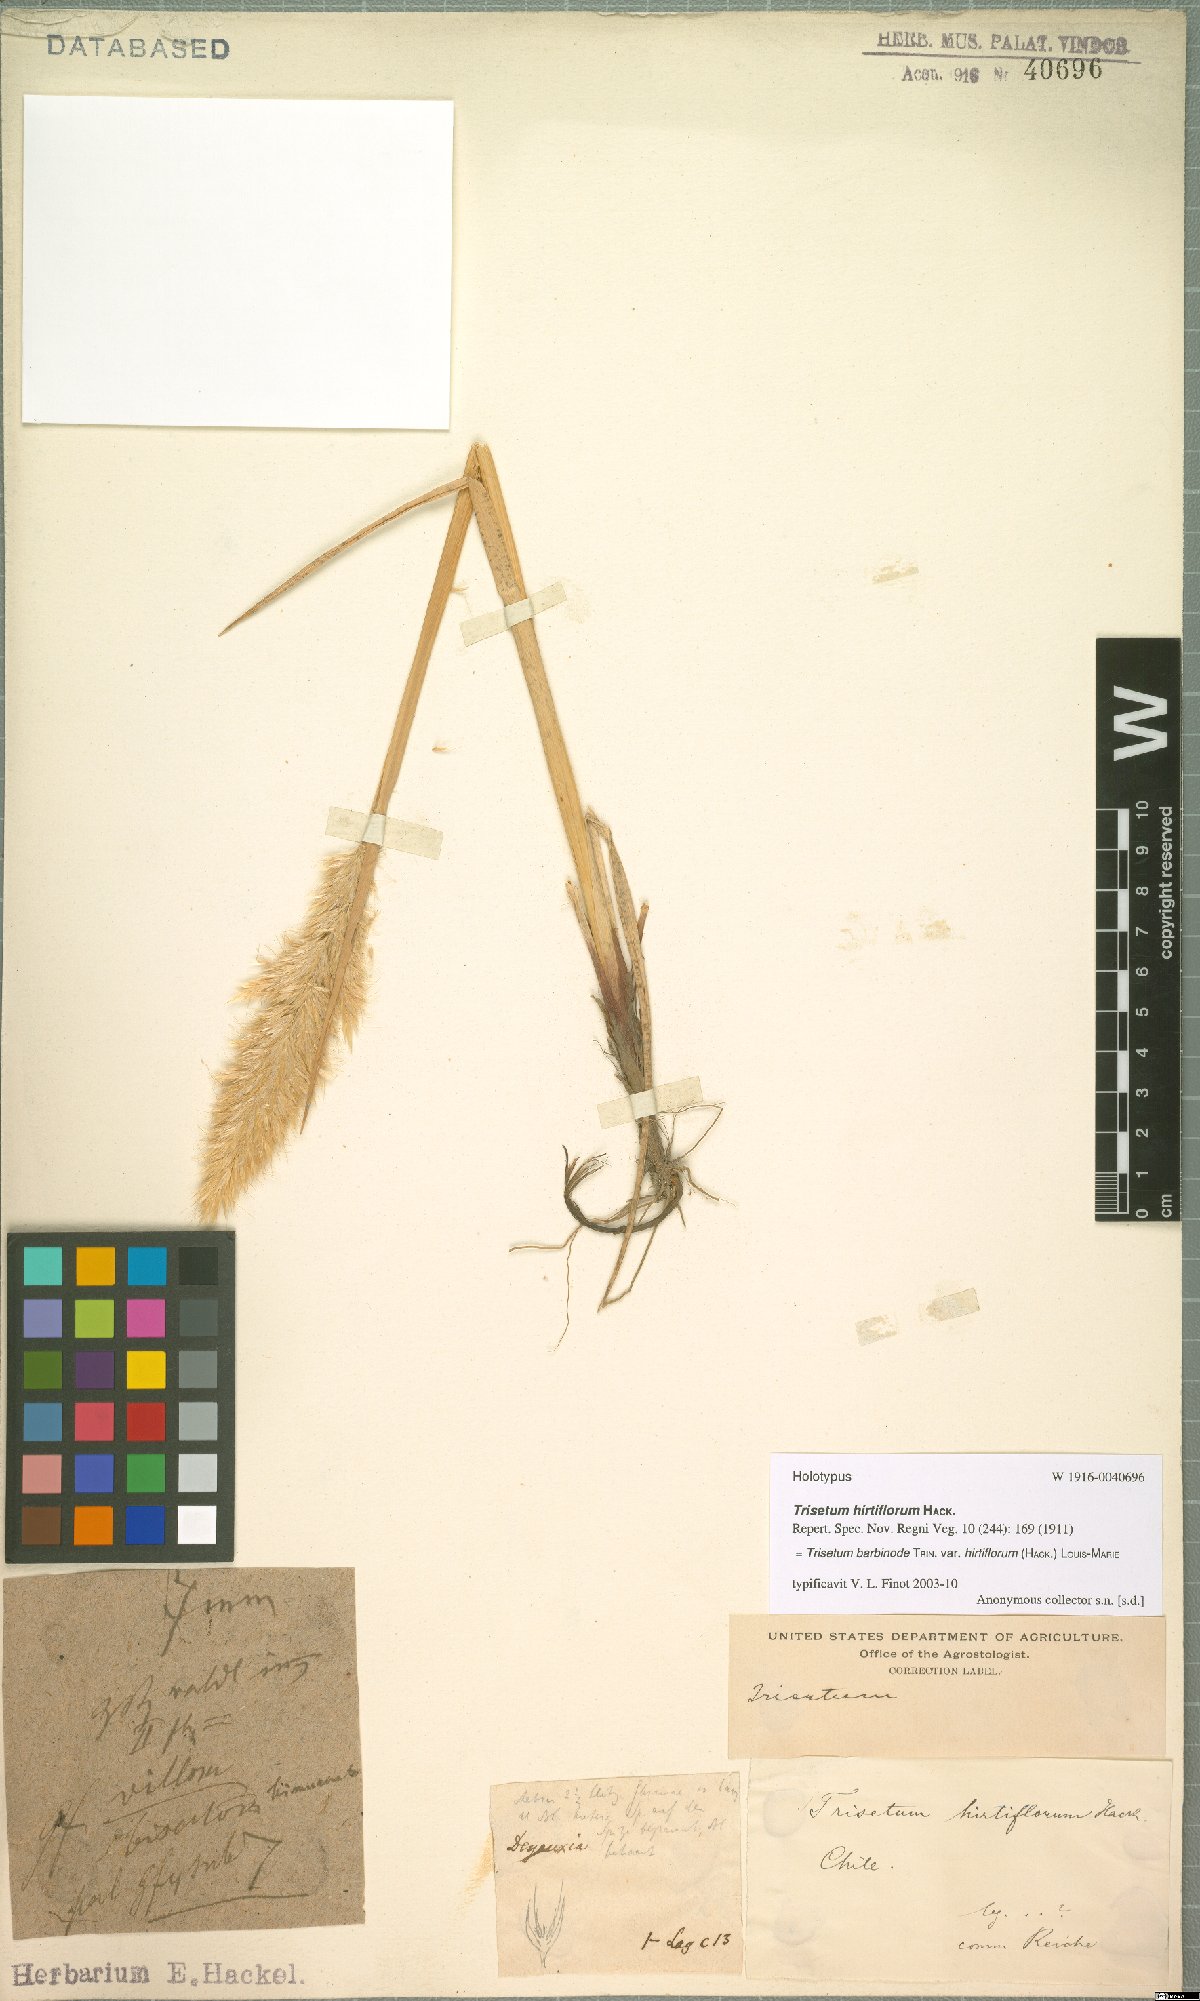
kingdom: Plantae
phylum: Tracheophyta
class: Liliopsida
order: Poales
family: Poaceae
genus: Koeleria
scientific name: Koeleria barbinodis
